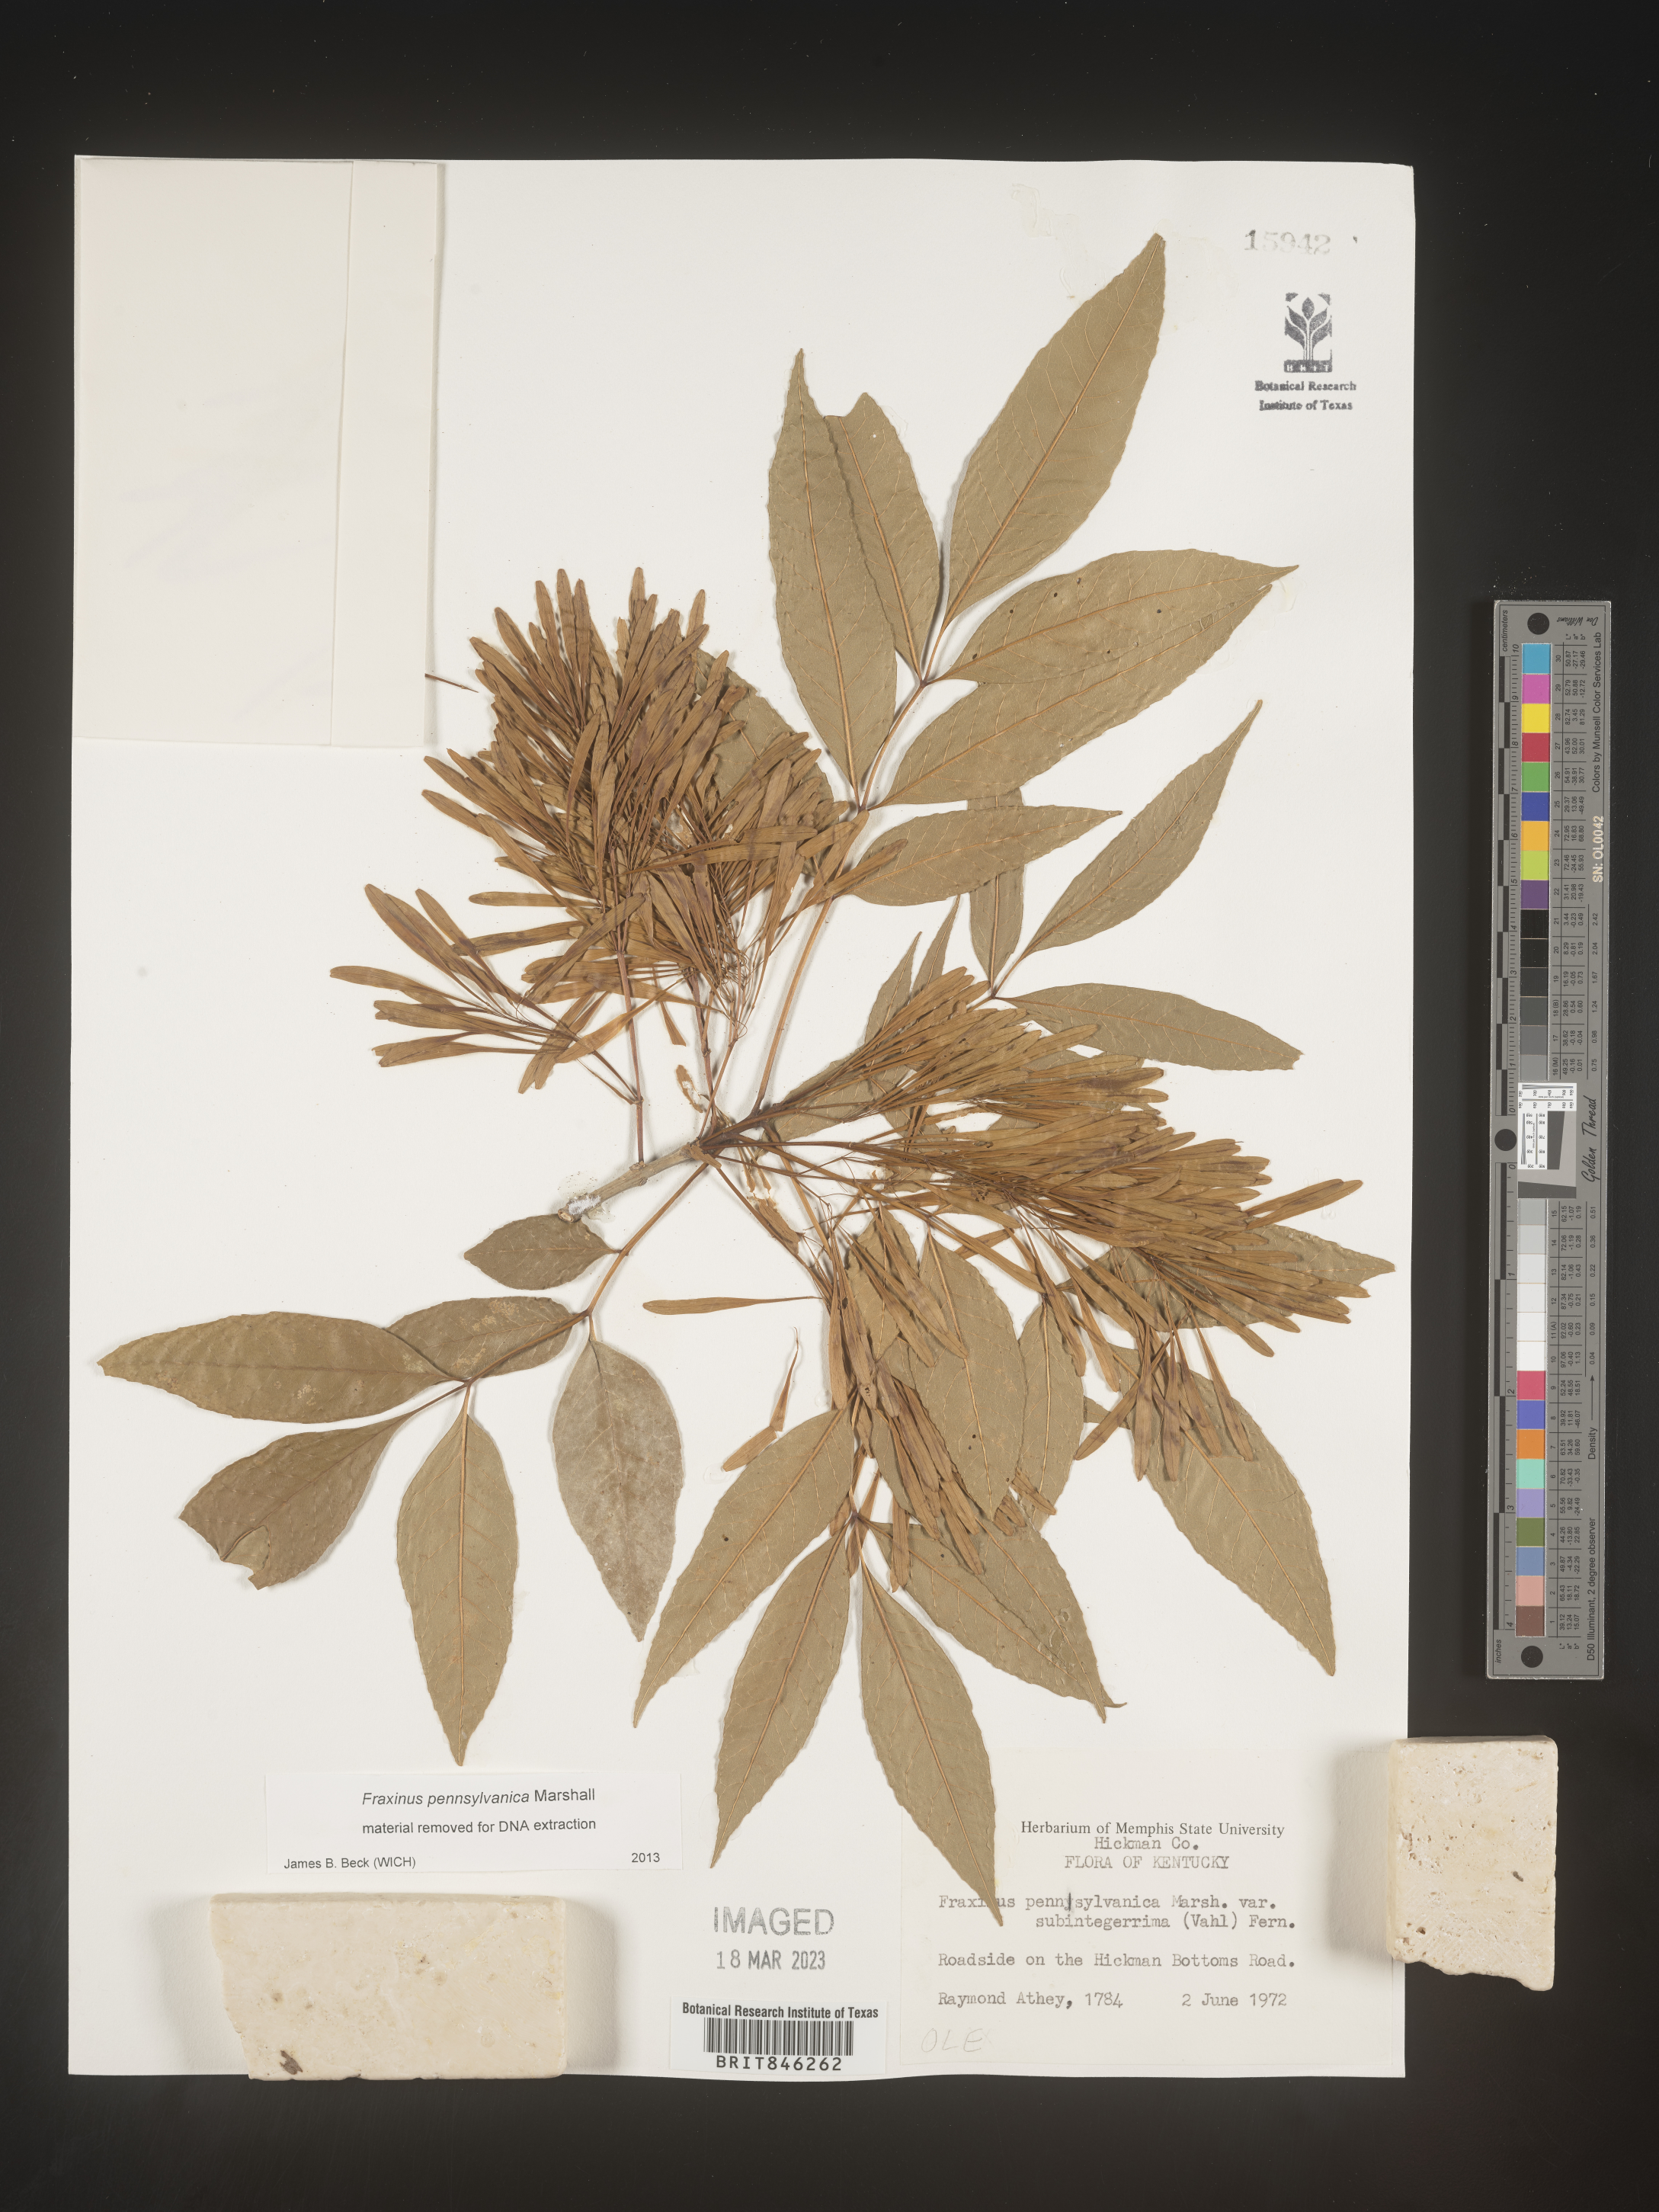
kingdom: Plantae
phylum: Tracheophyta
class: Magnoliopsida
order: Lamiales
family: Oleaceae
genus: Fraxinus
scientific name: Fraxinus pennsylvanica
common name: Green ash
